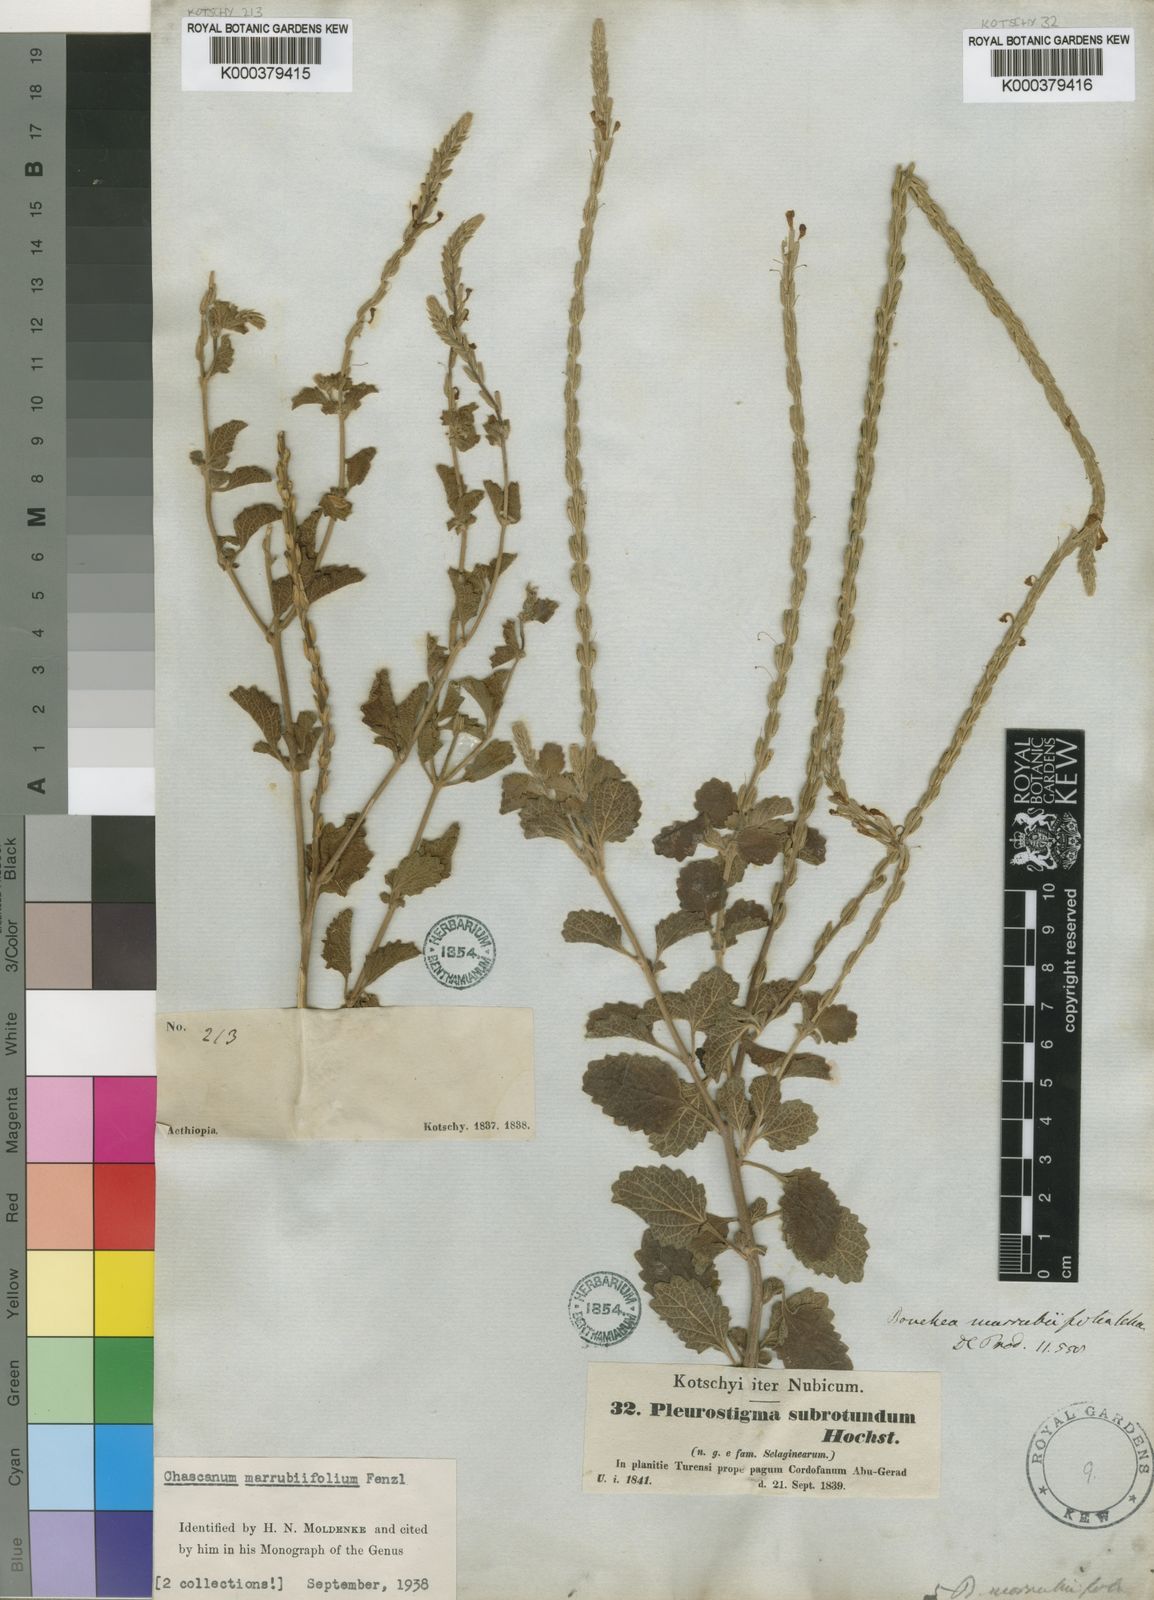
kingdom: Plantae
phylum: Tracheophyta
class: Magnoliopsida
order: Lamiales
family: Verbenaceae
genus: Chascanum
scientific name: Chascanum marrubiifolium
